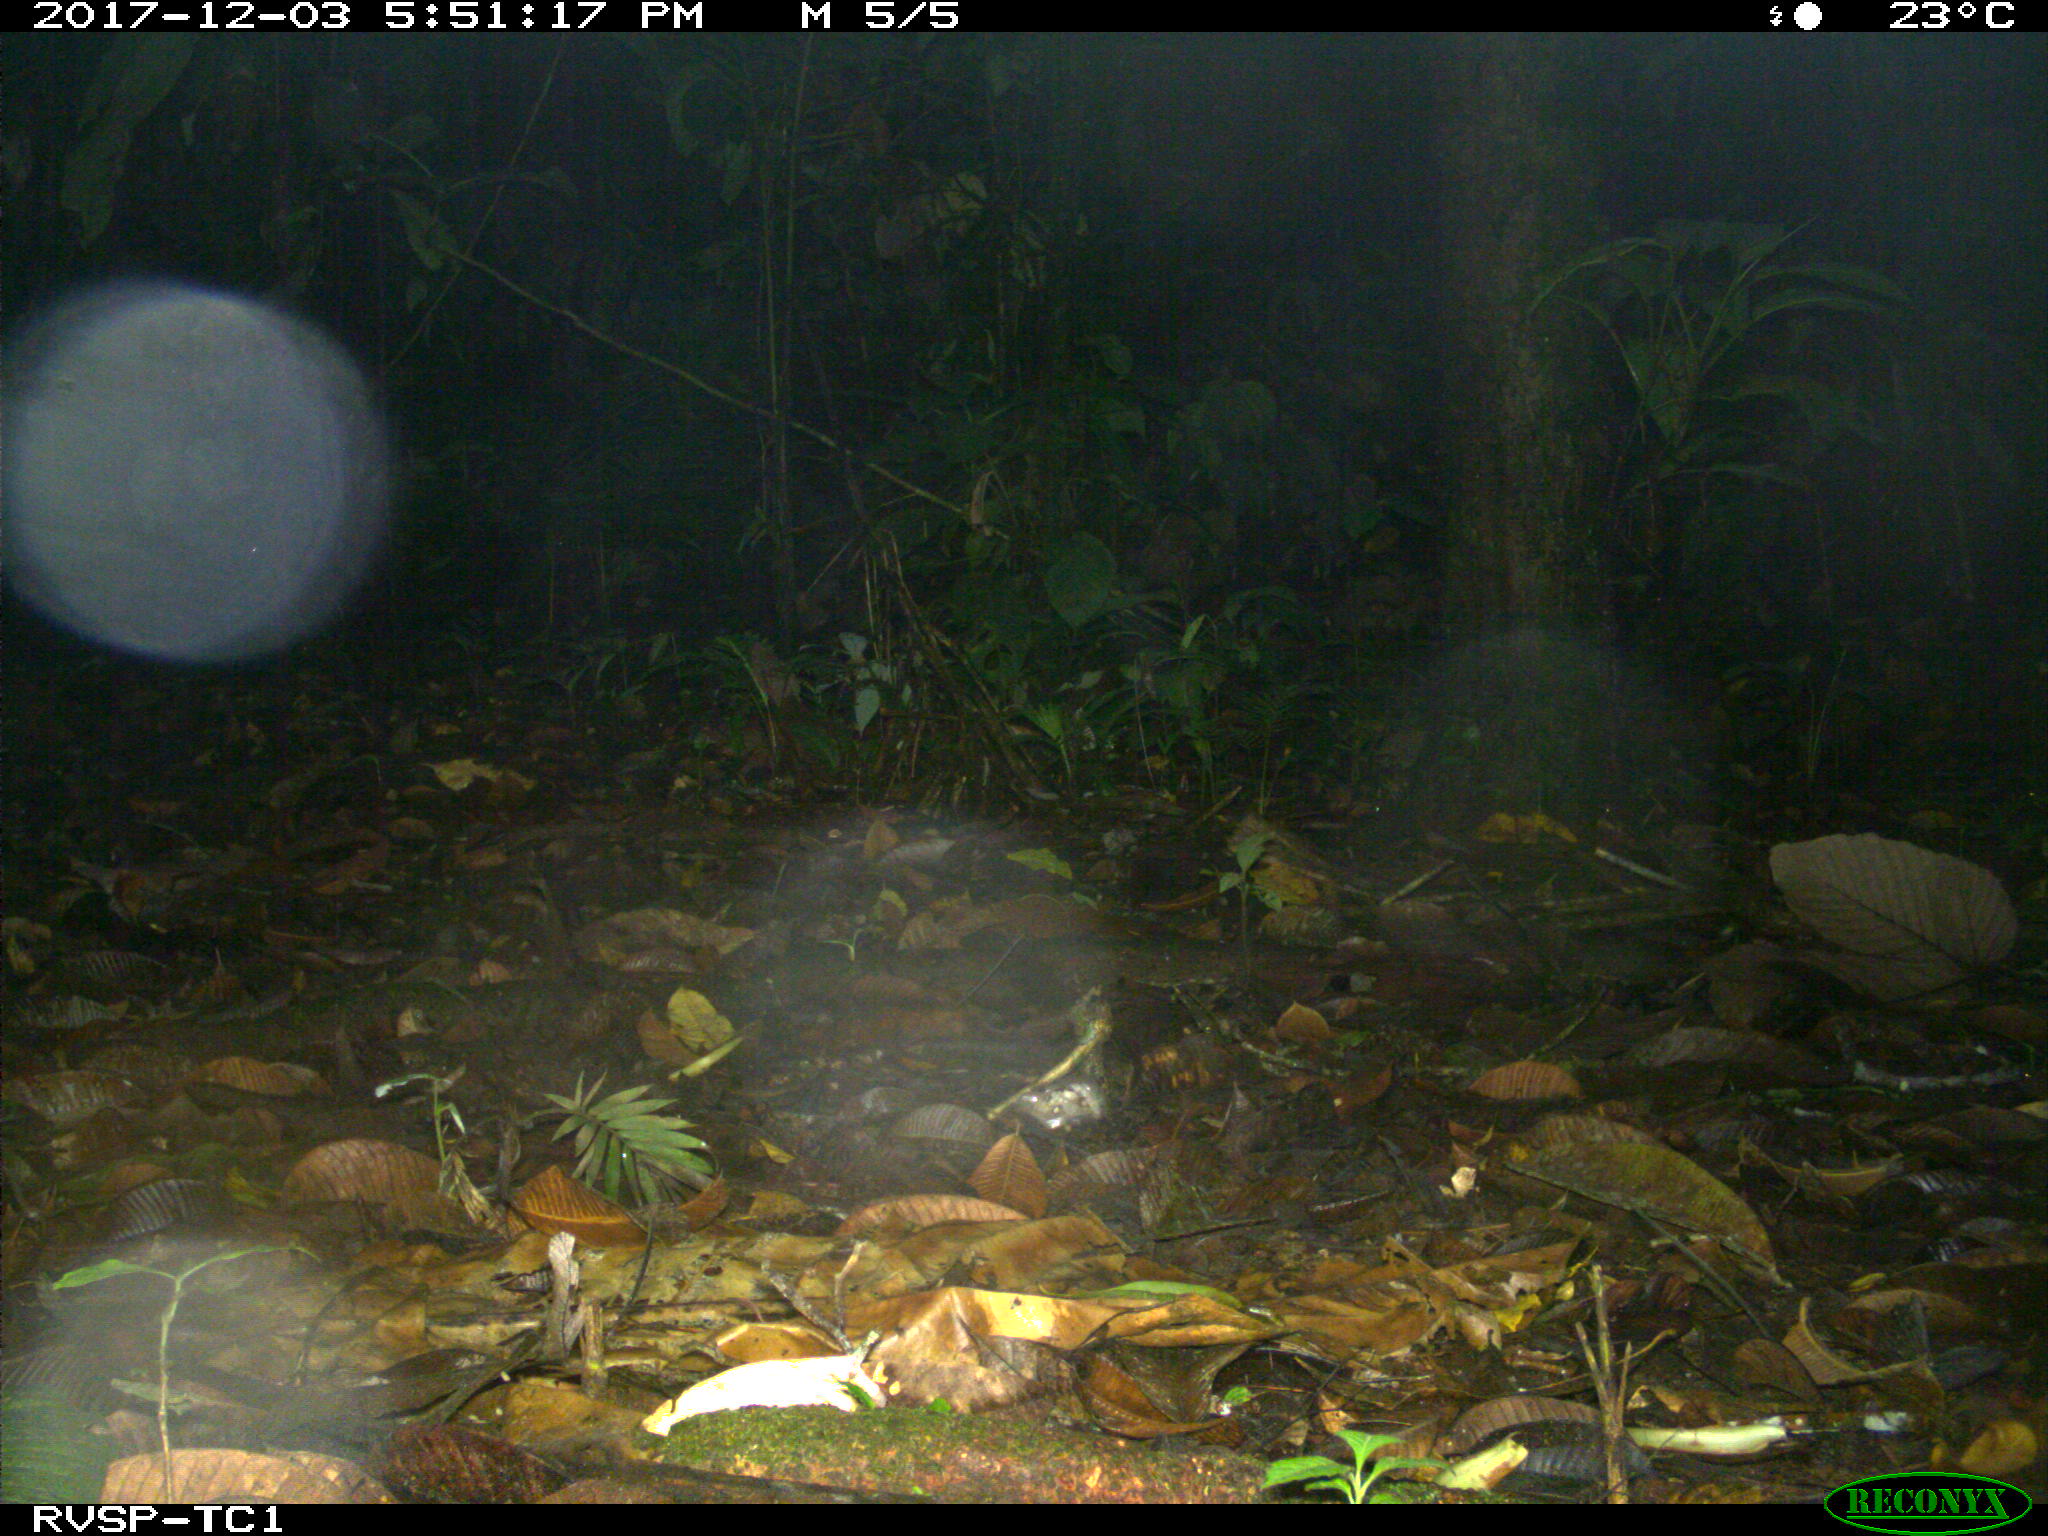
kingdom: Animalia
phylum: Chordata
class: Mammalia
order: Rodentia
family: Dasyproctidae
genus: Dasyprocta
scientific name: Dasyprocta punctata
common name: Central american agouti
